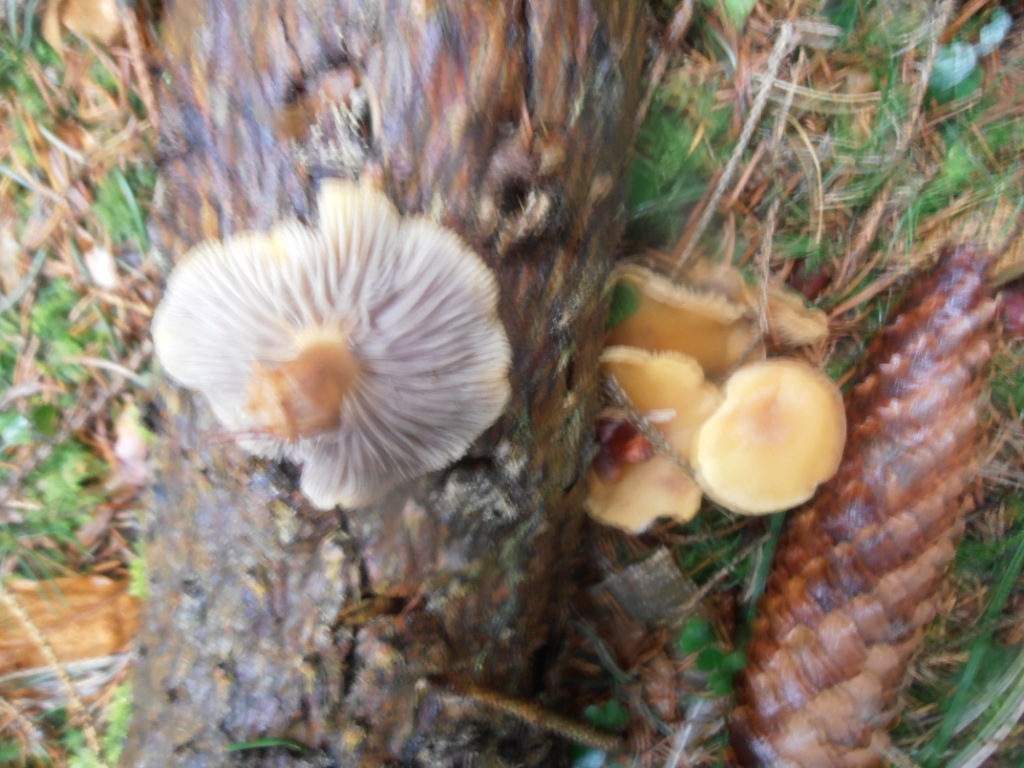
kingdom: Fungi
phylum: Basidiomycota
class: Agaricomycetes
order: Agaricales
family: Strophariaceae
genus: Hypholoma
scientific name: Hypholoma capnoides
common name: gran-svovlhat
